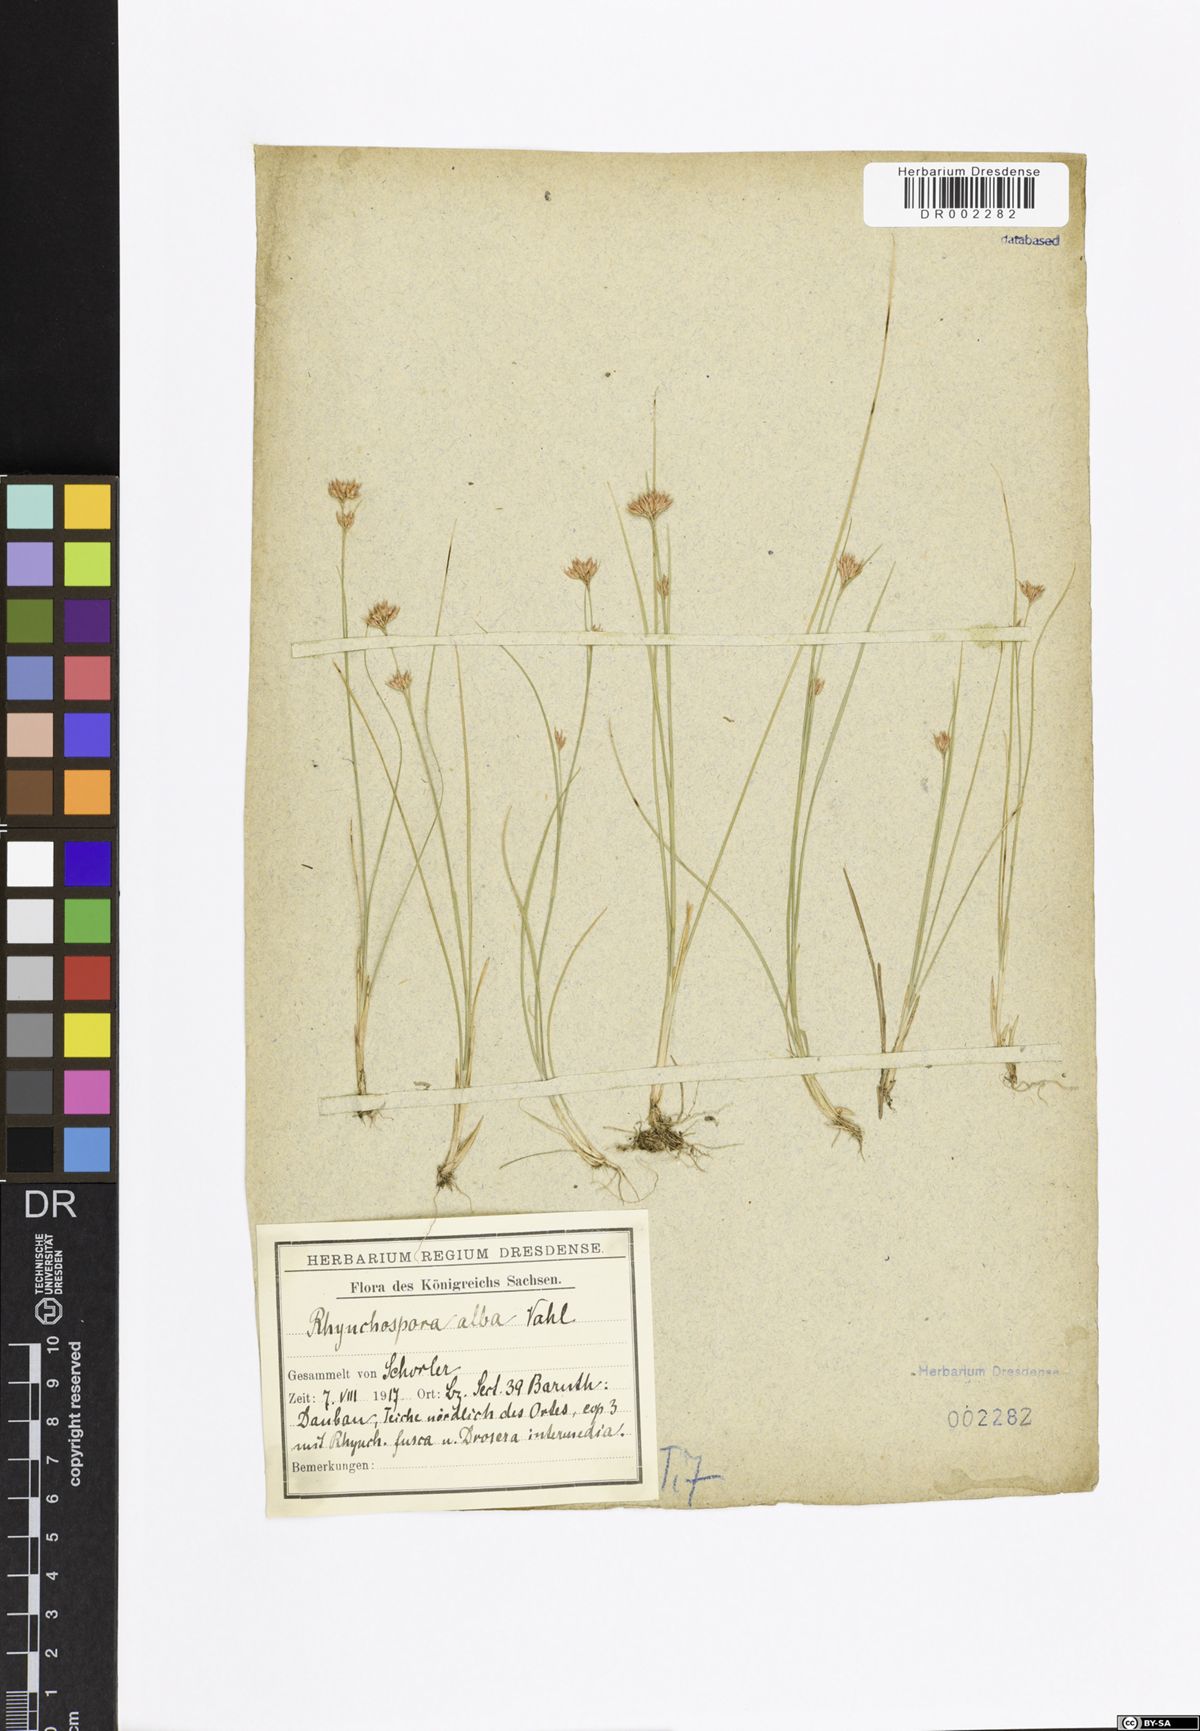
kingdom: Plantae
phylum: Tracheophyta
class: Liliopsida
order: Poales
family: Cyperaceae
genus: Rhynchospora
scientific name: Rhynchospora alba
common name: White beak-sedge
